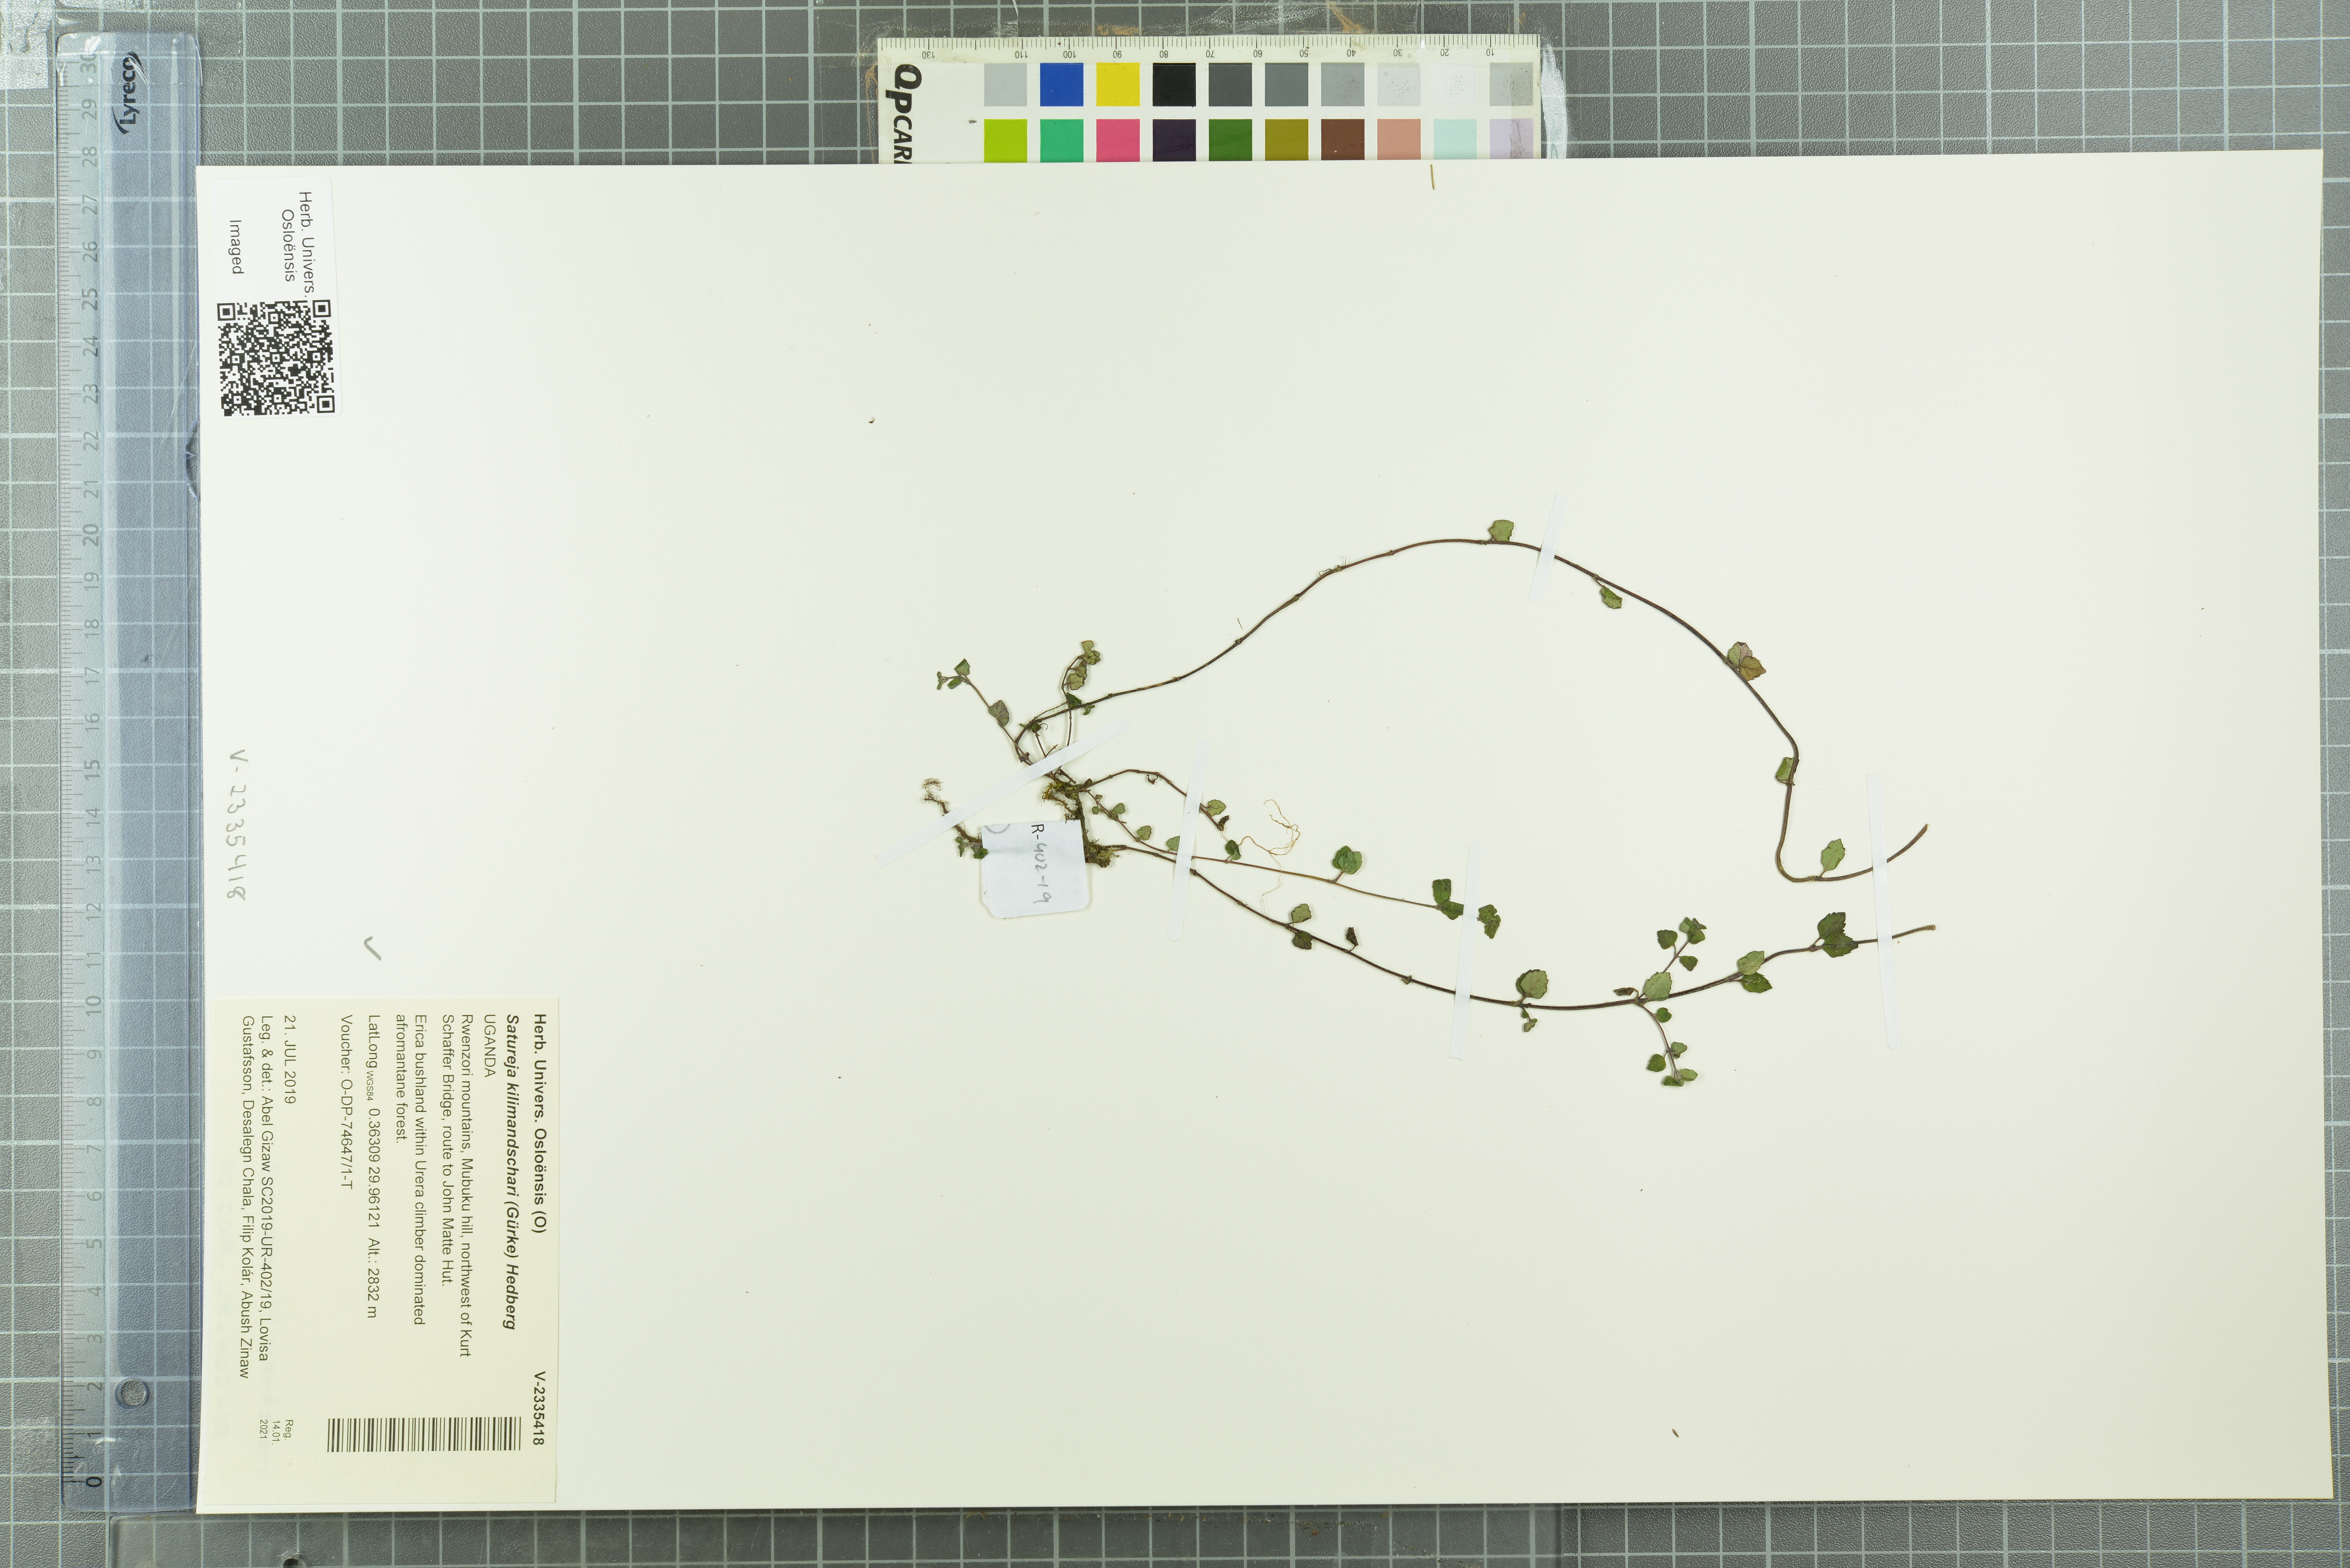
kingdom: Plantae
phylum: Tracheophyta
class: Magnoliopsida
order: Lamiales
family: Lamiaceae
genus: Clinopodium
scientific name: Clinopodium kilimandschari
